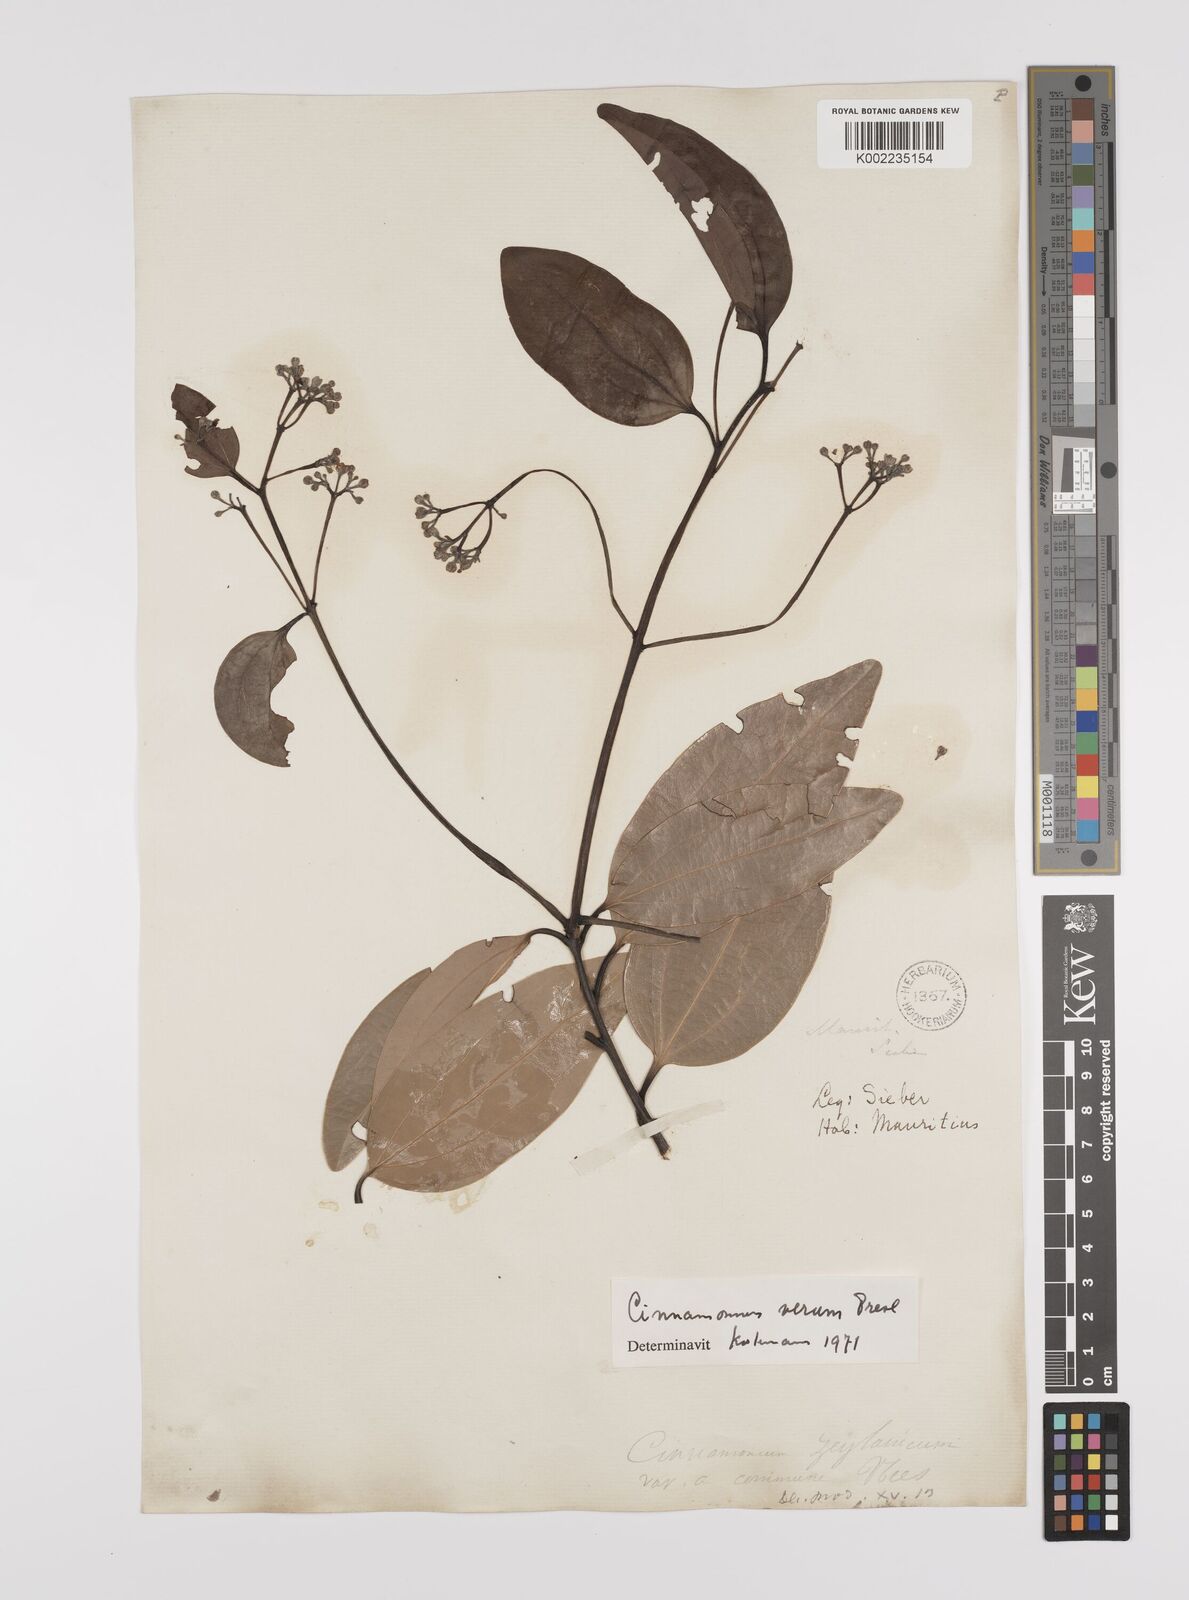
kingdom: Plantae
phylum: Tracheophyta
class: Magnoliopsida
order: Laurales
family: Lauraceae
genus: Cinnamomum
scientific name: Cinnamomum verum
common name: Cinnamon
